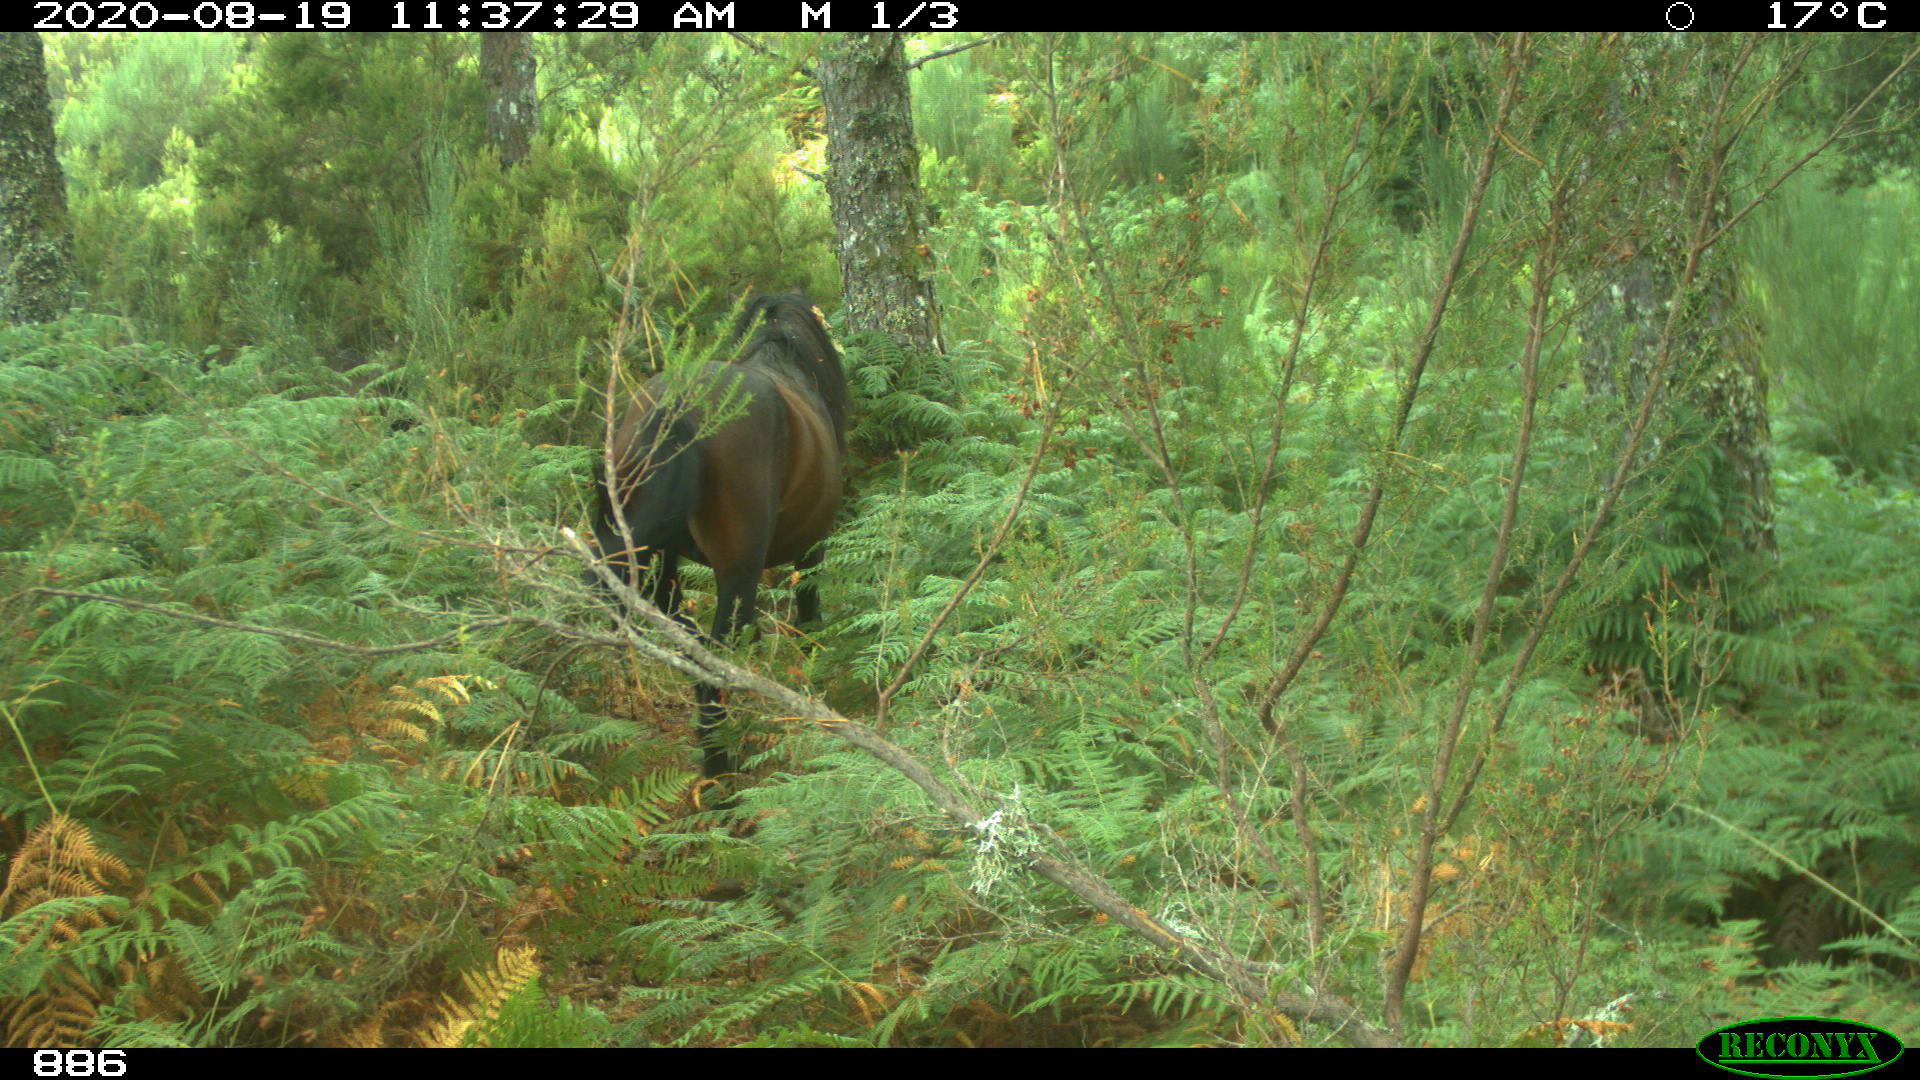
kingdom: Animalia
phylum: Chordata
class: Mammalia
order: Perissodactyla
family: Equidae
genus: Equus
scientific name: Equus caballus
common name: Horse
